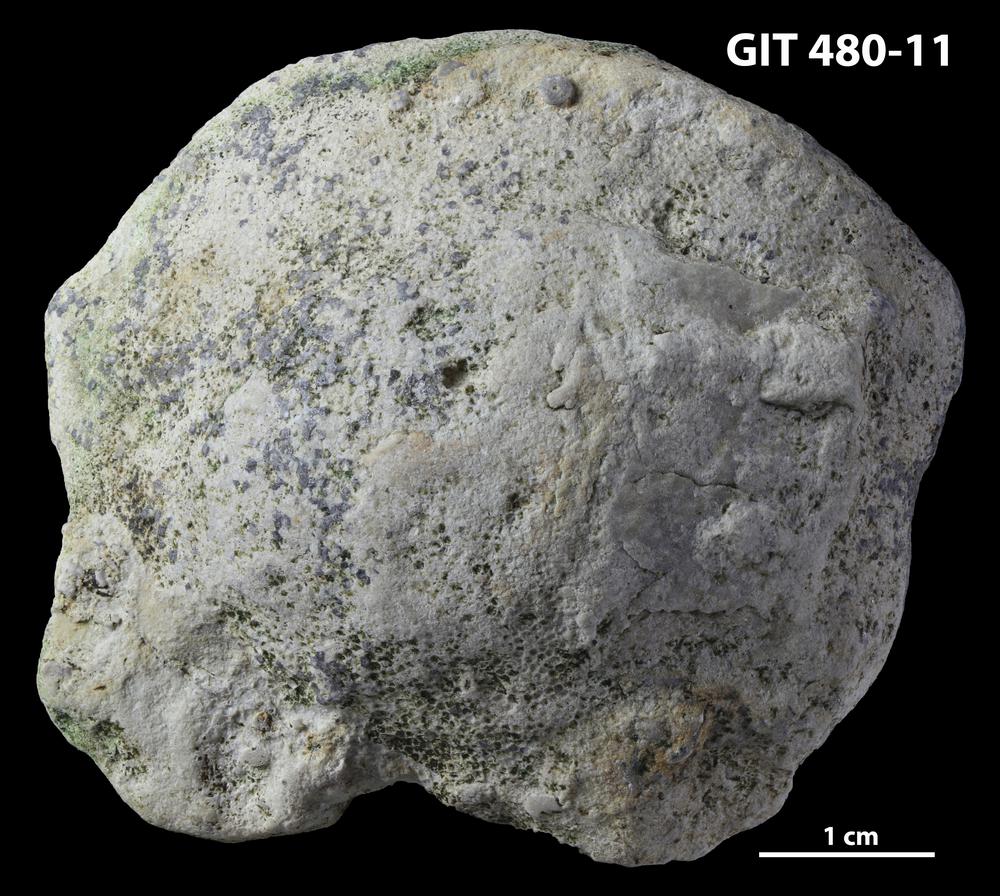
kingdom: Animalia
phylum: Bryozoa
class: Stenolaemata
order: Trepostomatida
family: Dianulitidae
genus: Dianulites
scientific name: Dianulites grandis
